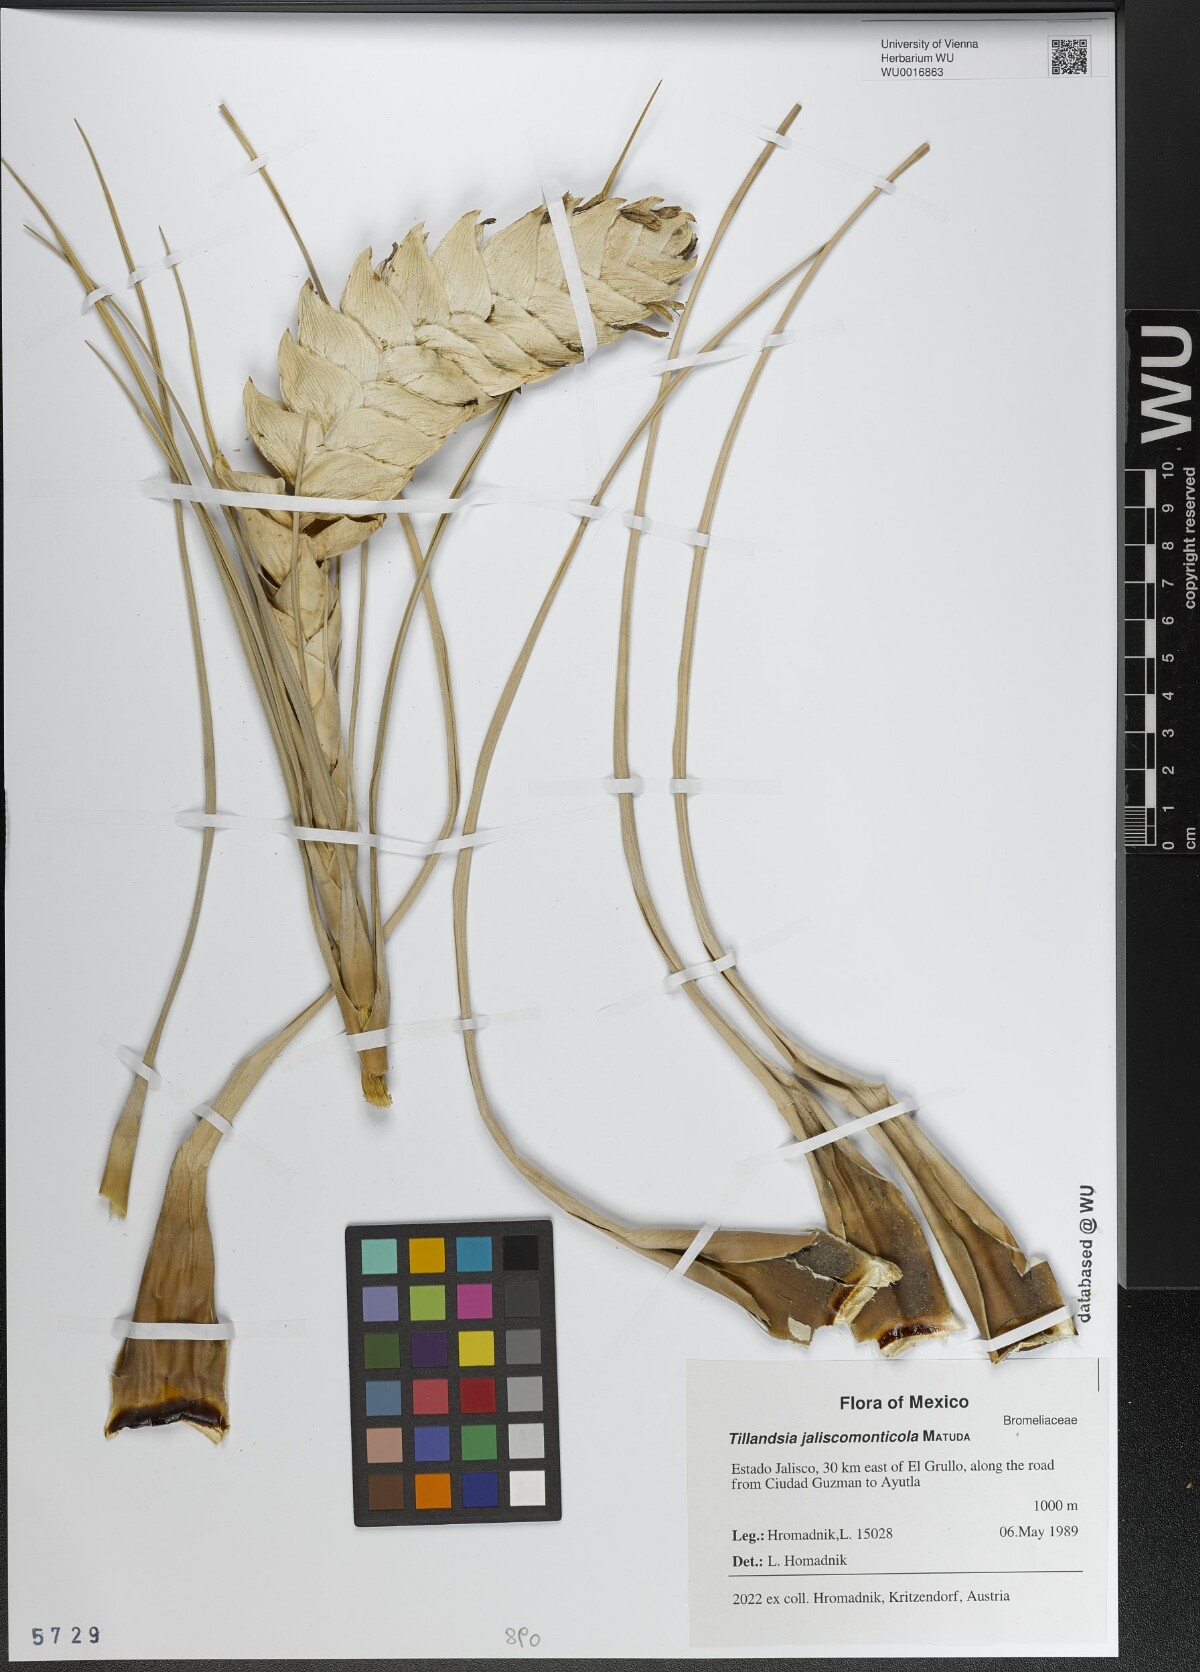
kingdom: Plantae
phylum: Tracheophyta
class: Liliopsida
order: Poales
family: Bromeliaceae
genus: Tillandsia
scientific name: Tillandsia compressa
